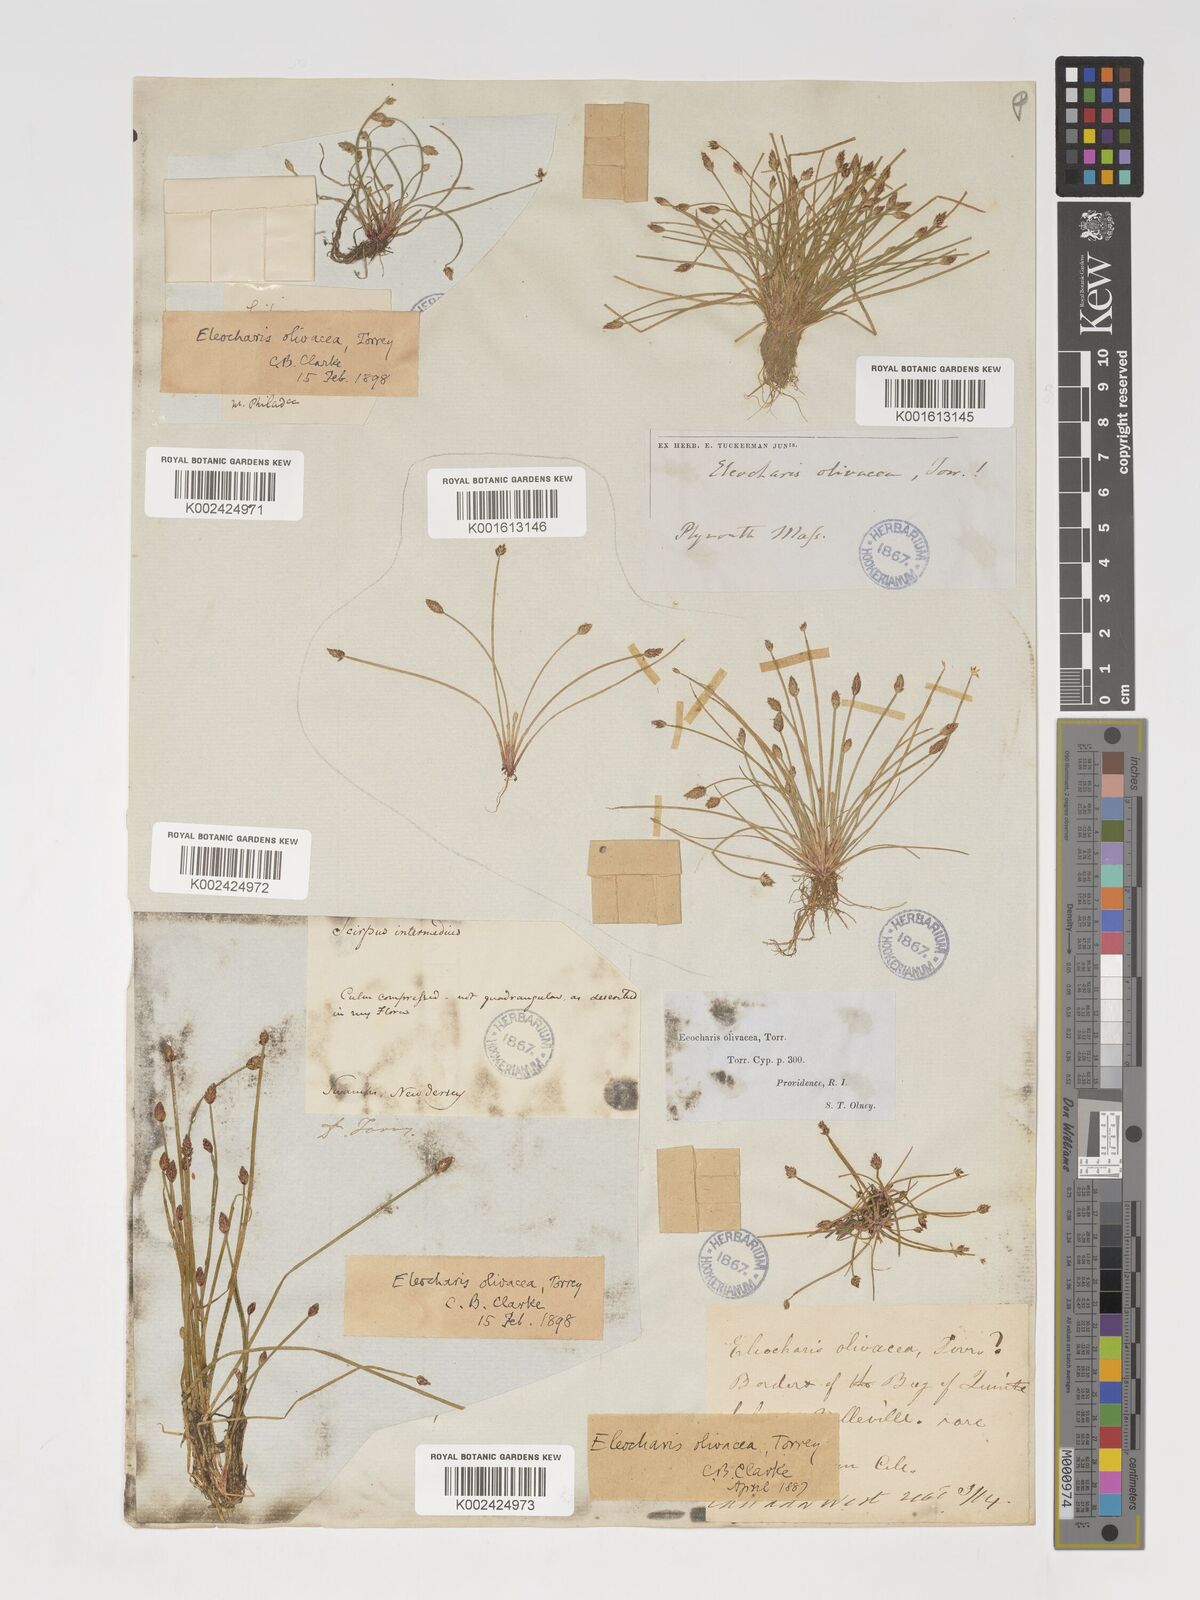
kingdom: Plantae
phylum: Tracheophyta
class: Liliopsida
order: Poales
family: Cyperaceae
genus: Eleocharis
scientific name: Eleocharis flavescens
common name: Yellow spikerush
